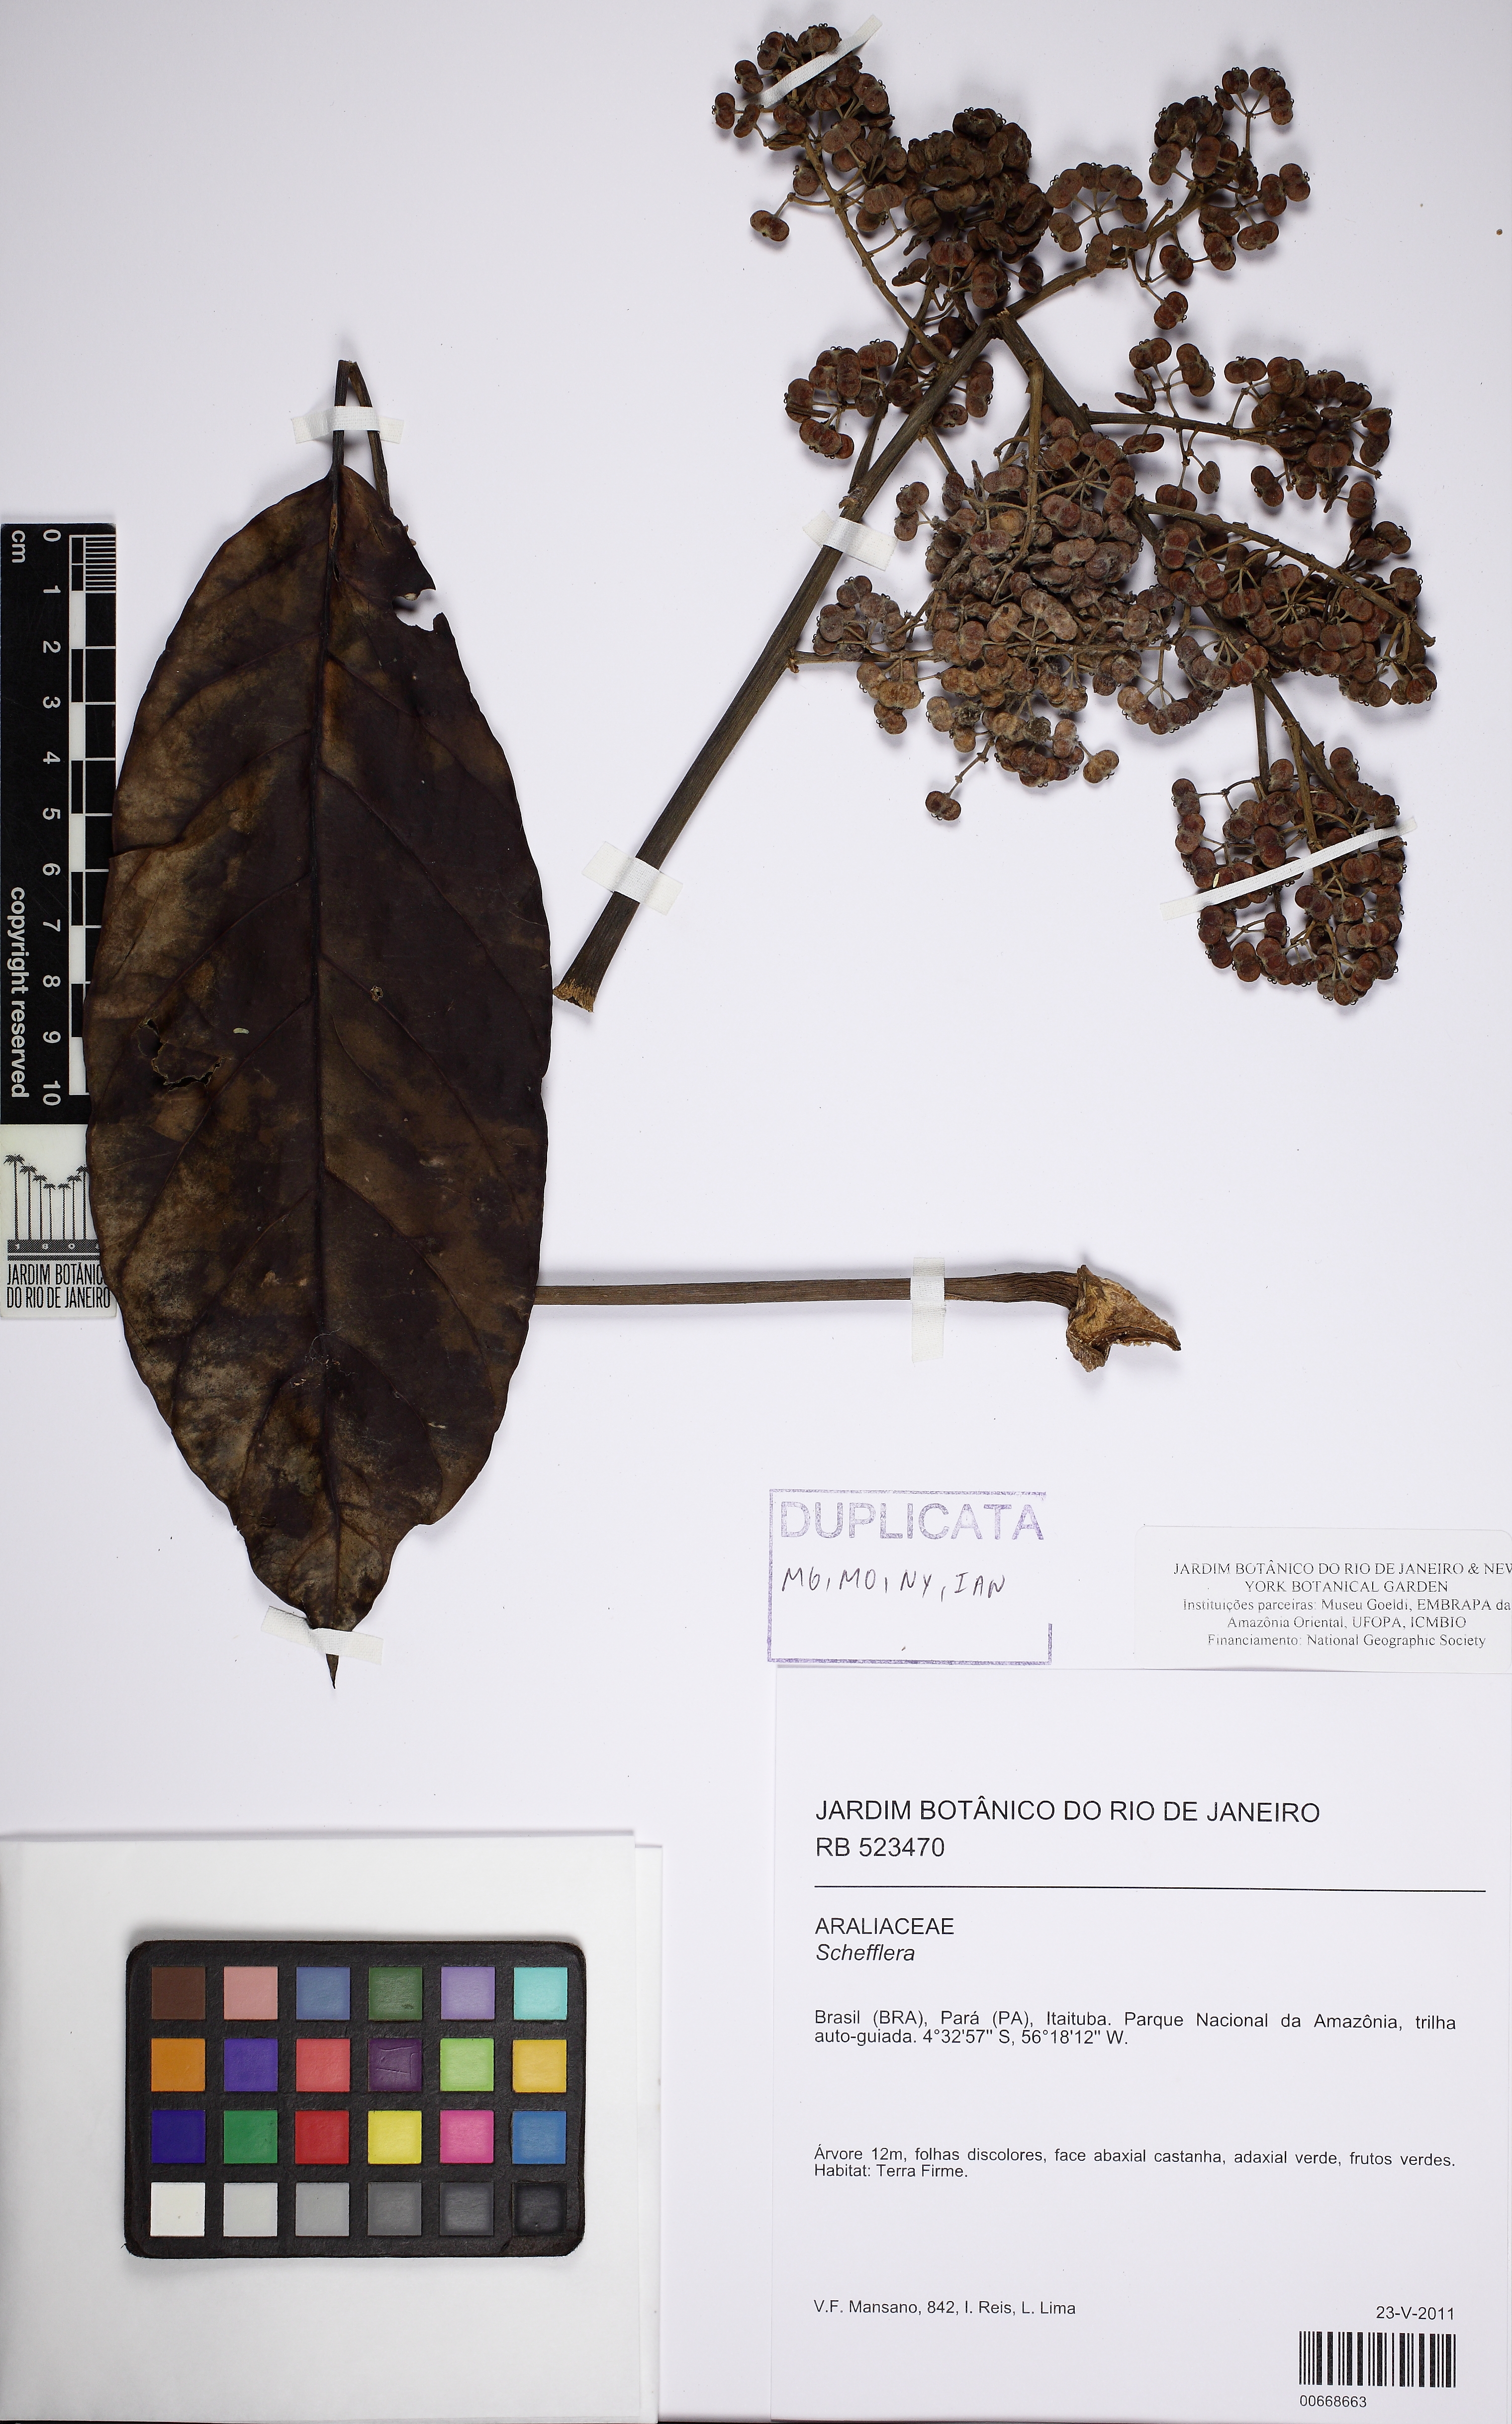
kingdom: Plantae
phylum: Tracheophyta
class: Magnoliopsida
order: Apiales
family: Araliaceae
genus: Didymopanax
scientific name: Didymopanax morototoni
